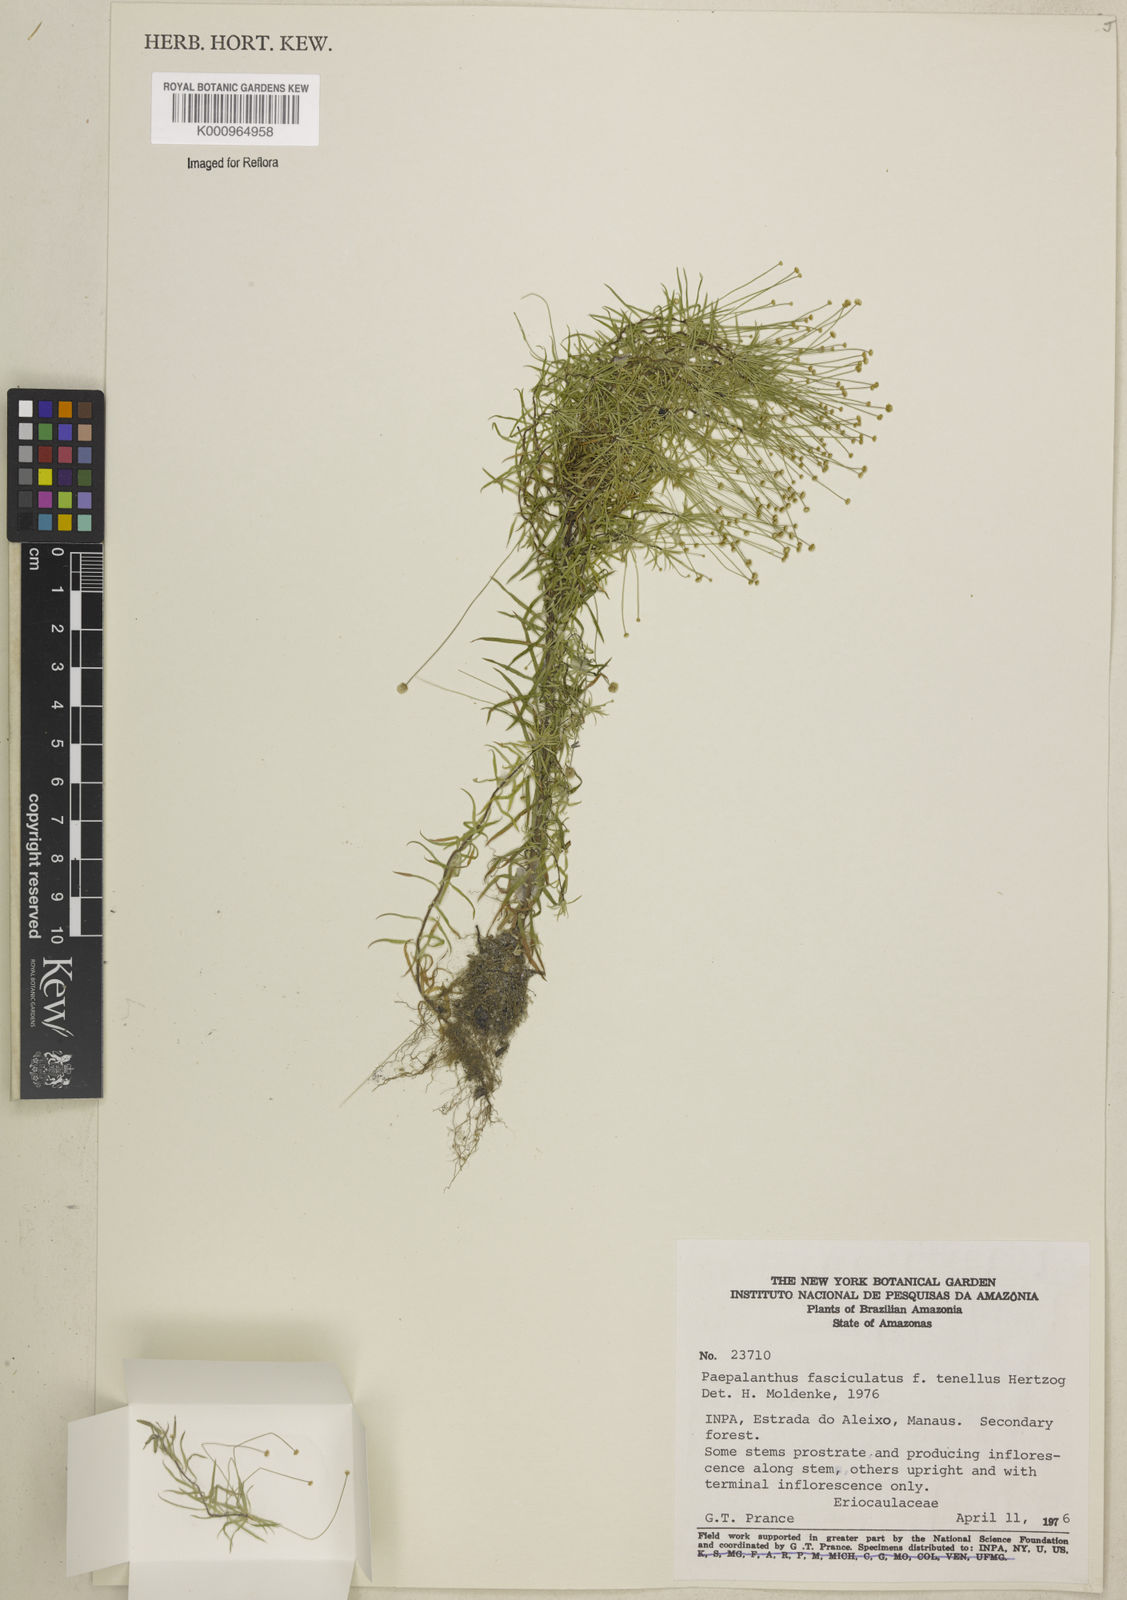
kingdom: Plantae
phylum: Tracheophyta
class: Liliopsida
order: Poales
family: Eriocaulaceae
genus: Paepalanthus
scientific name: Paepalanthus fasciculatus
